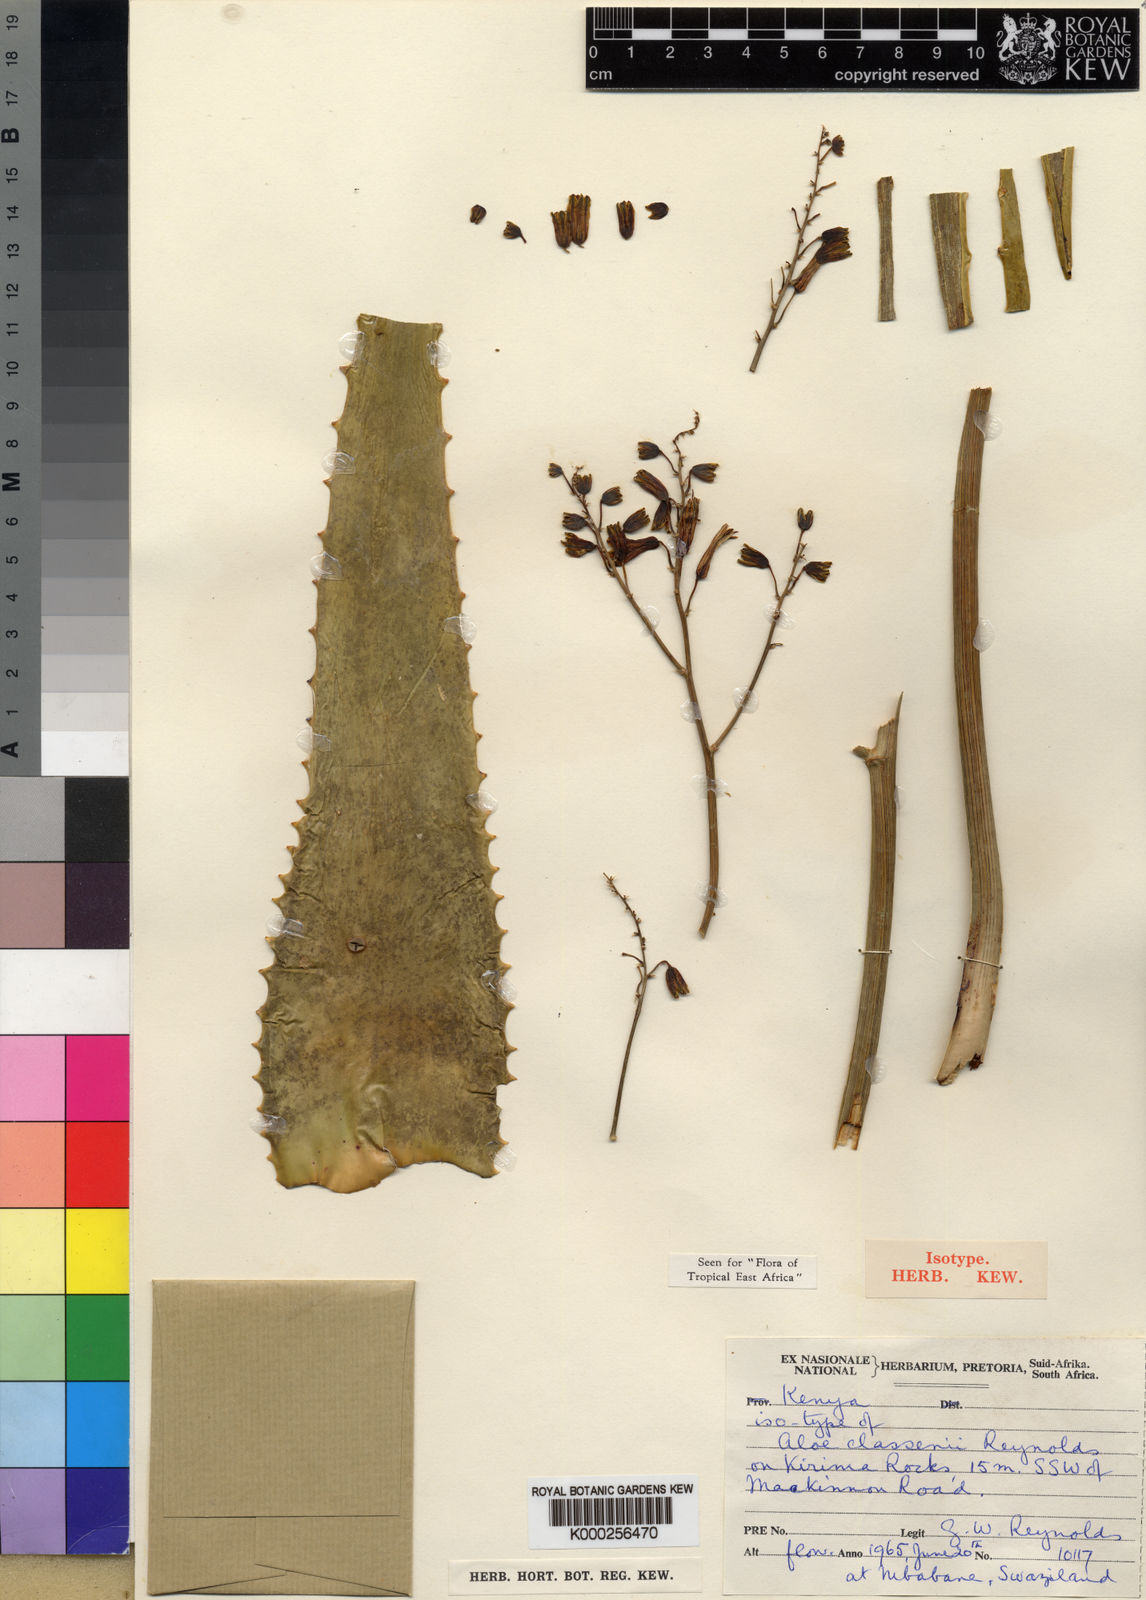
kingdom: Plantae
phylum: Tracheophyta
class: Liliopsida
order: Asparagales
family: Asphodelaceae
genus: Aloe
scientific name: Aloe classenii
